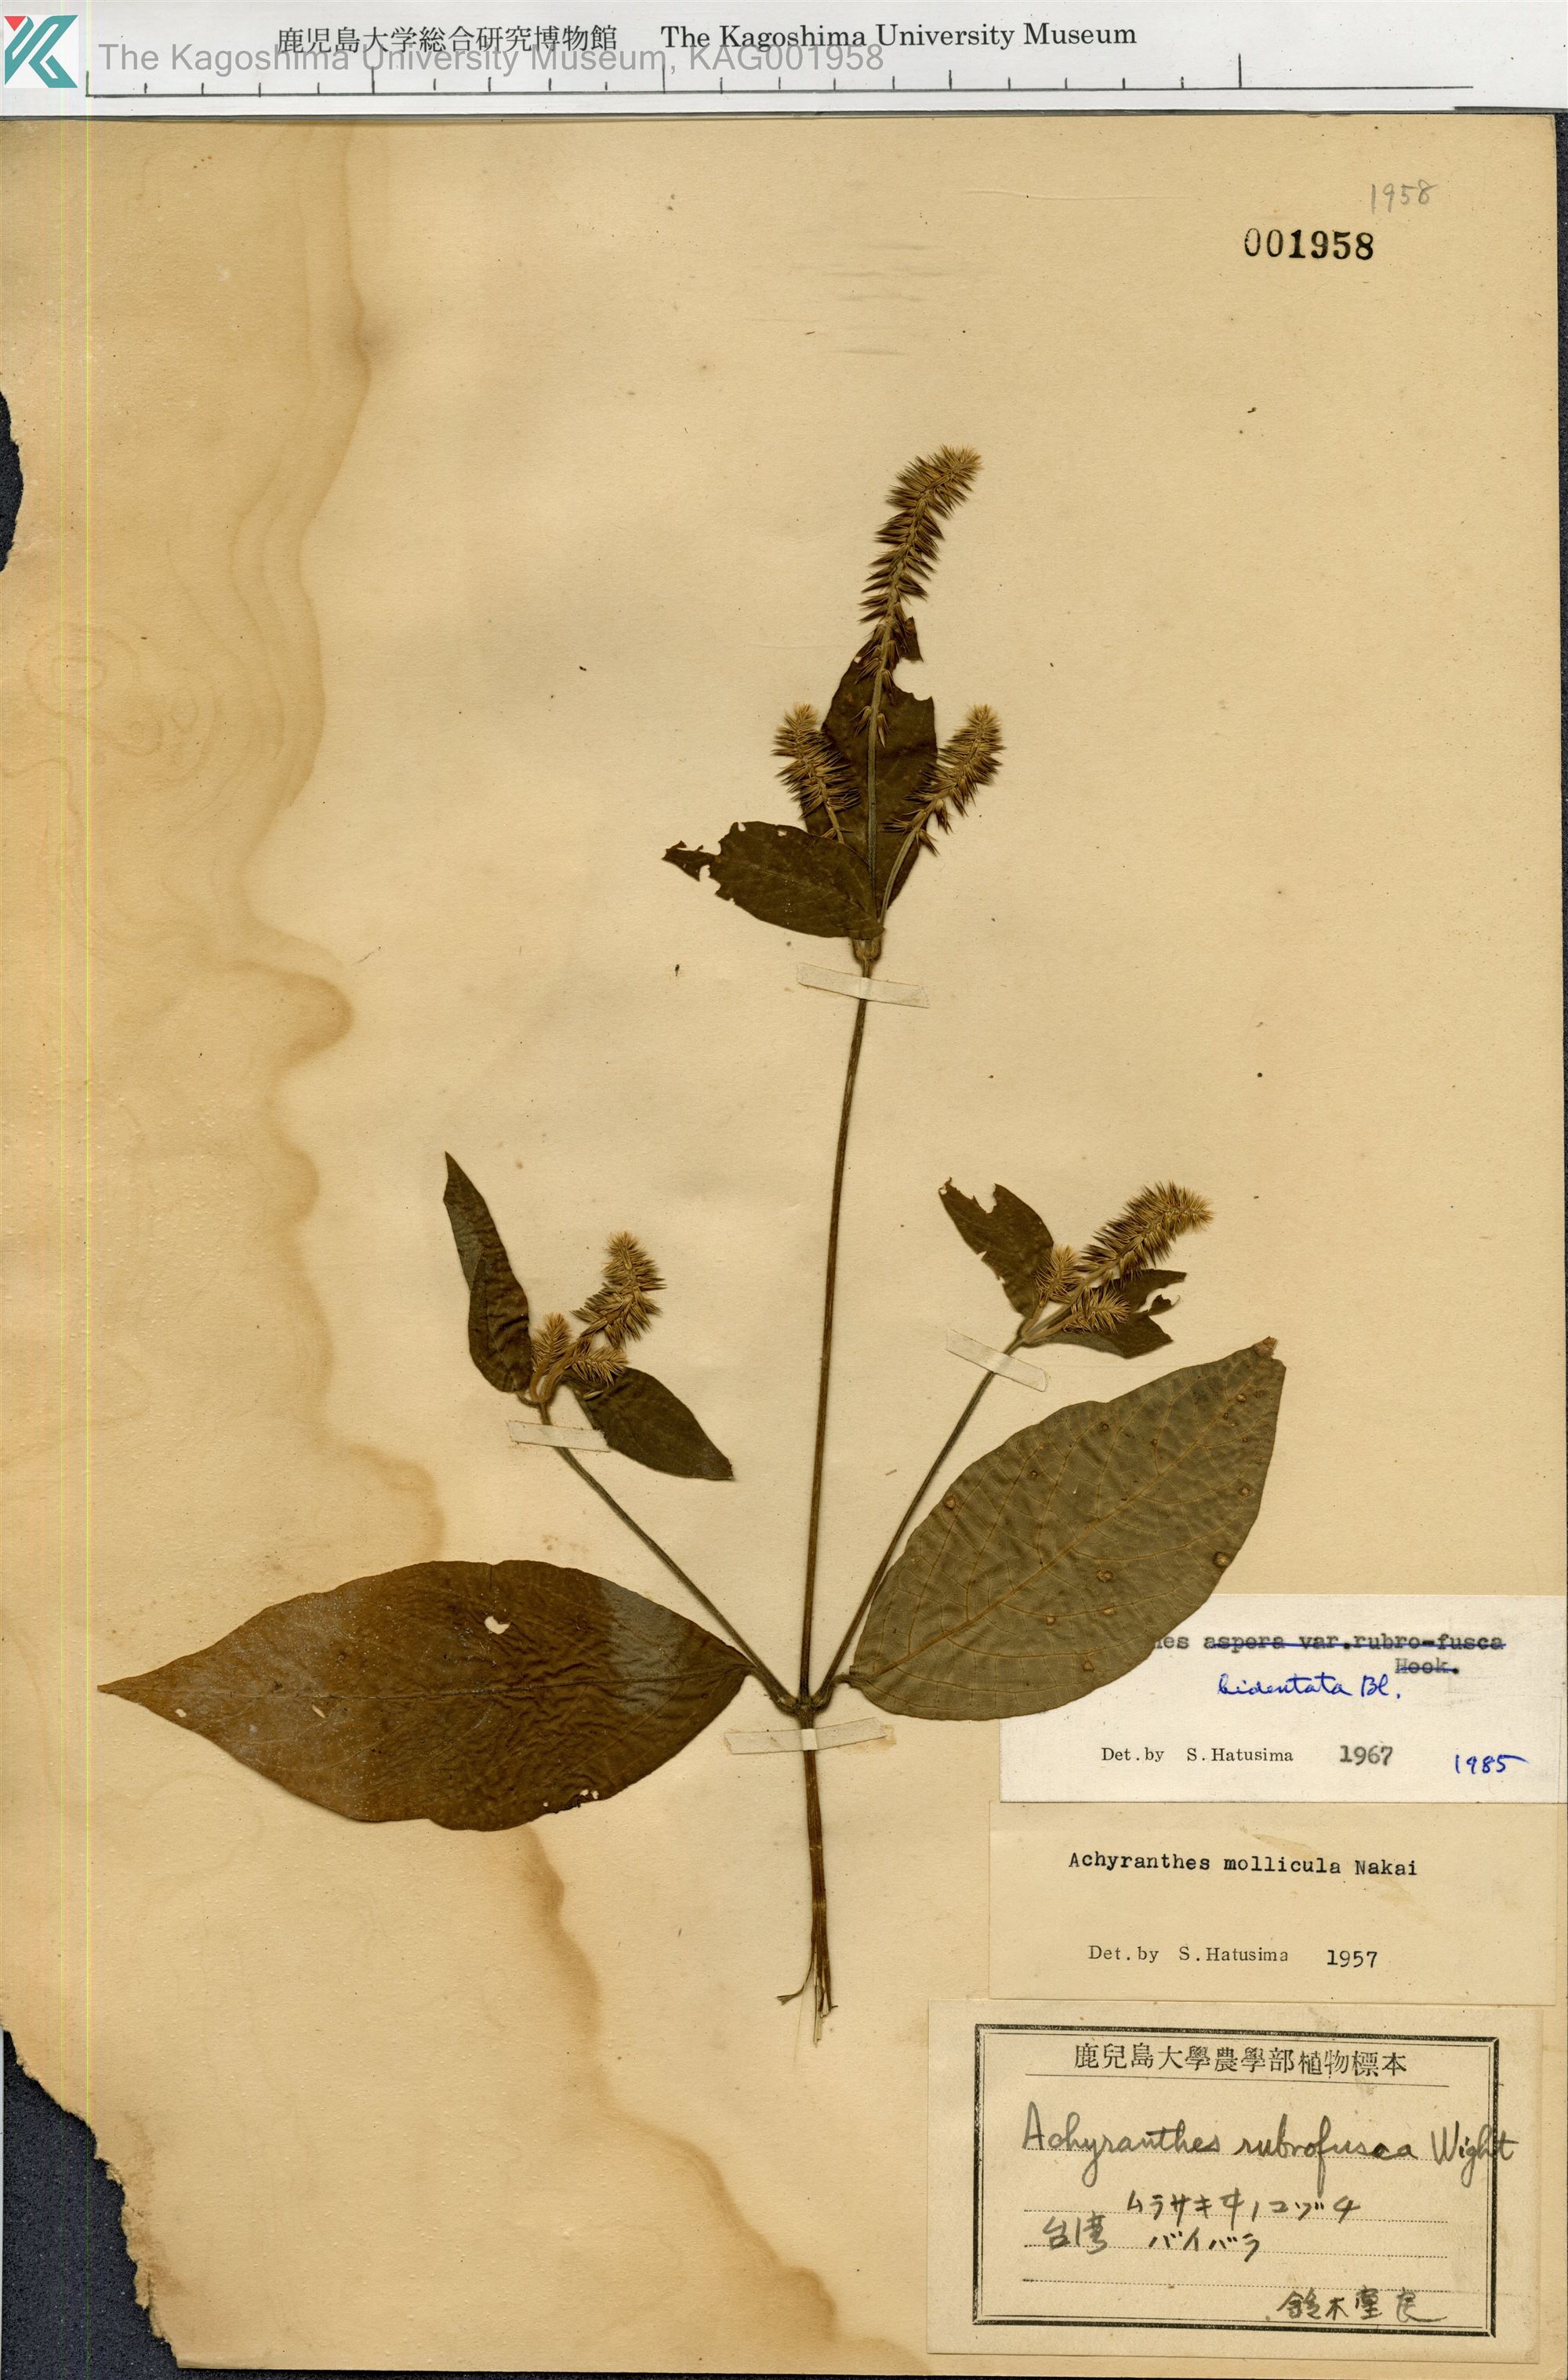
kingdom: Plantae
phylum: Tracheophyta
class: Magnoliopsida
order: Caryophyllales
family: Amaranthaceae
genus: Achyranthes
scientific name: Achyranthes bidentata
